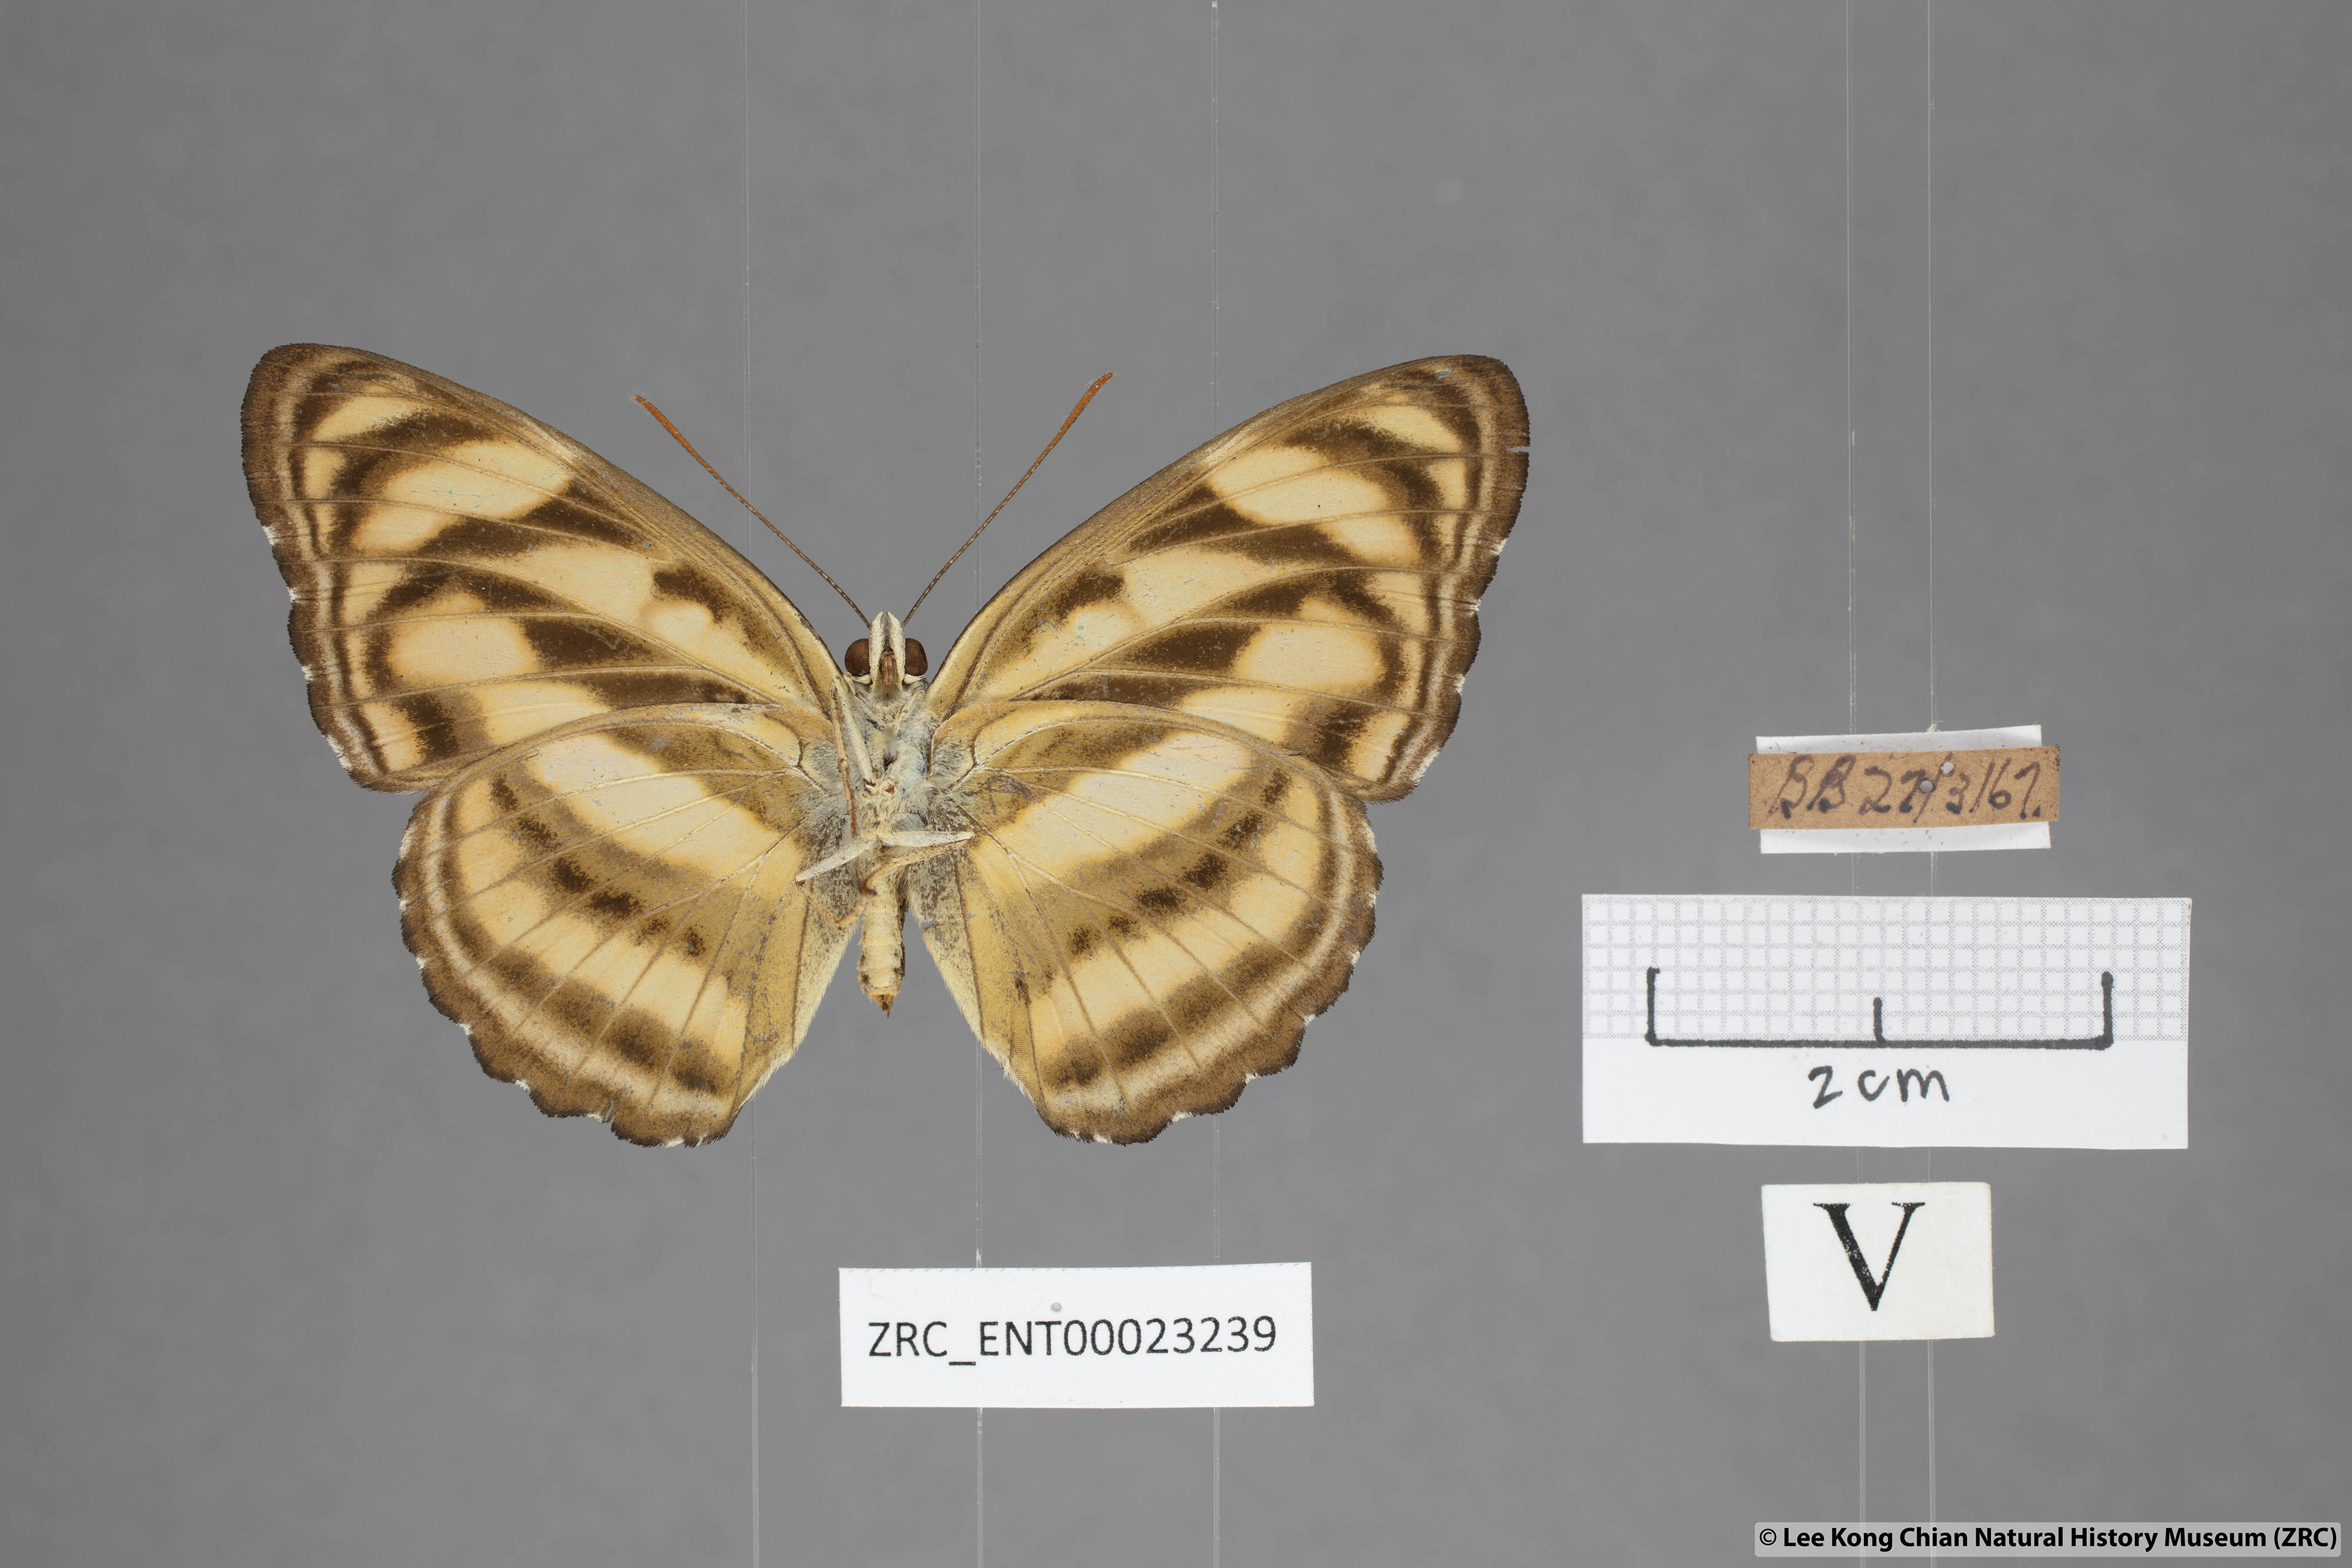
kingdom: Animalia
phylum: Arthropoda
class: Insecta
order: Lepidoptera
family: Nymphalidae
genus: Parathyma
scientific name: Parathyma nefte
